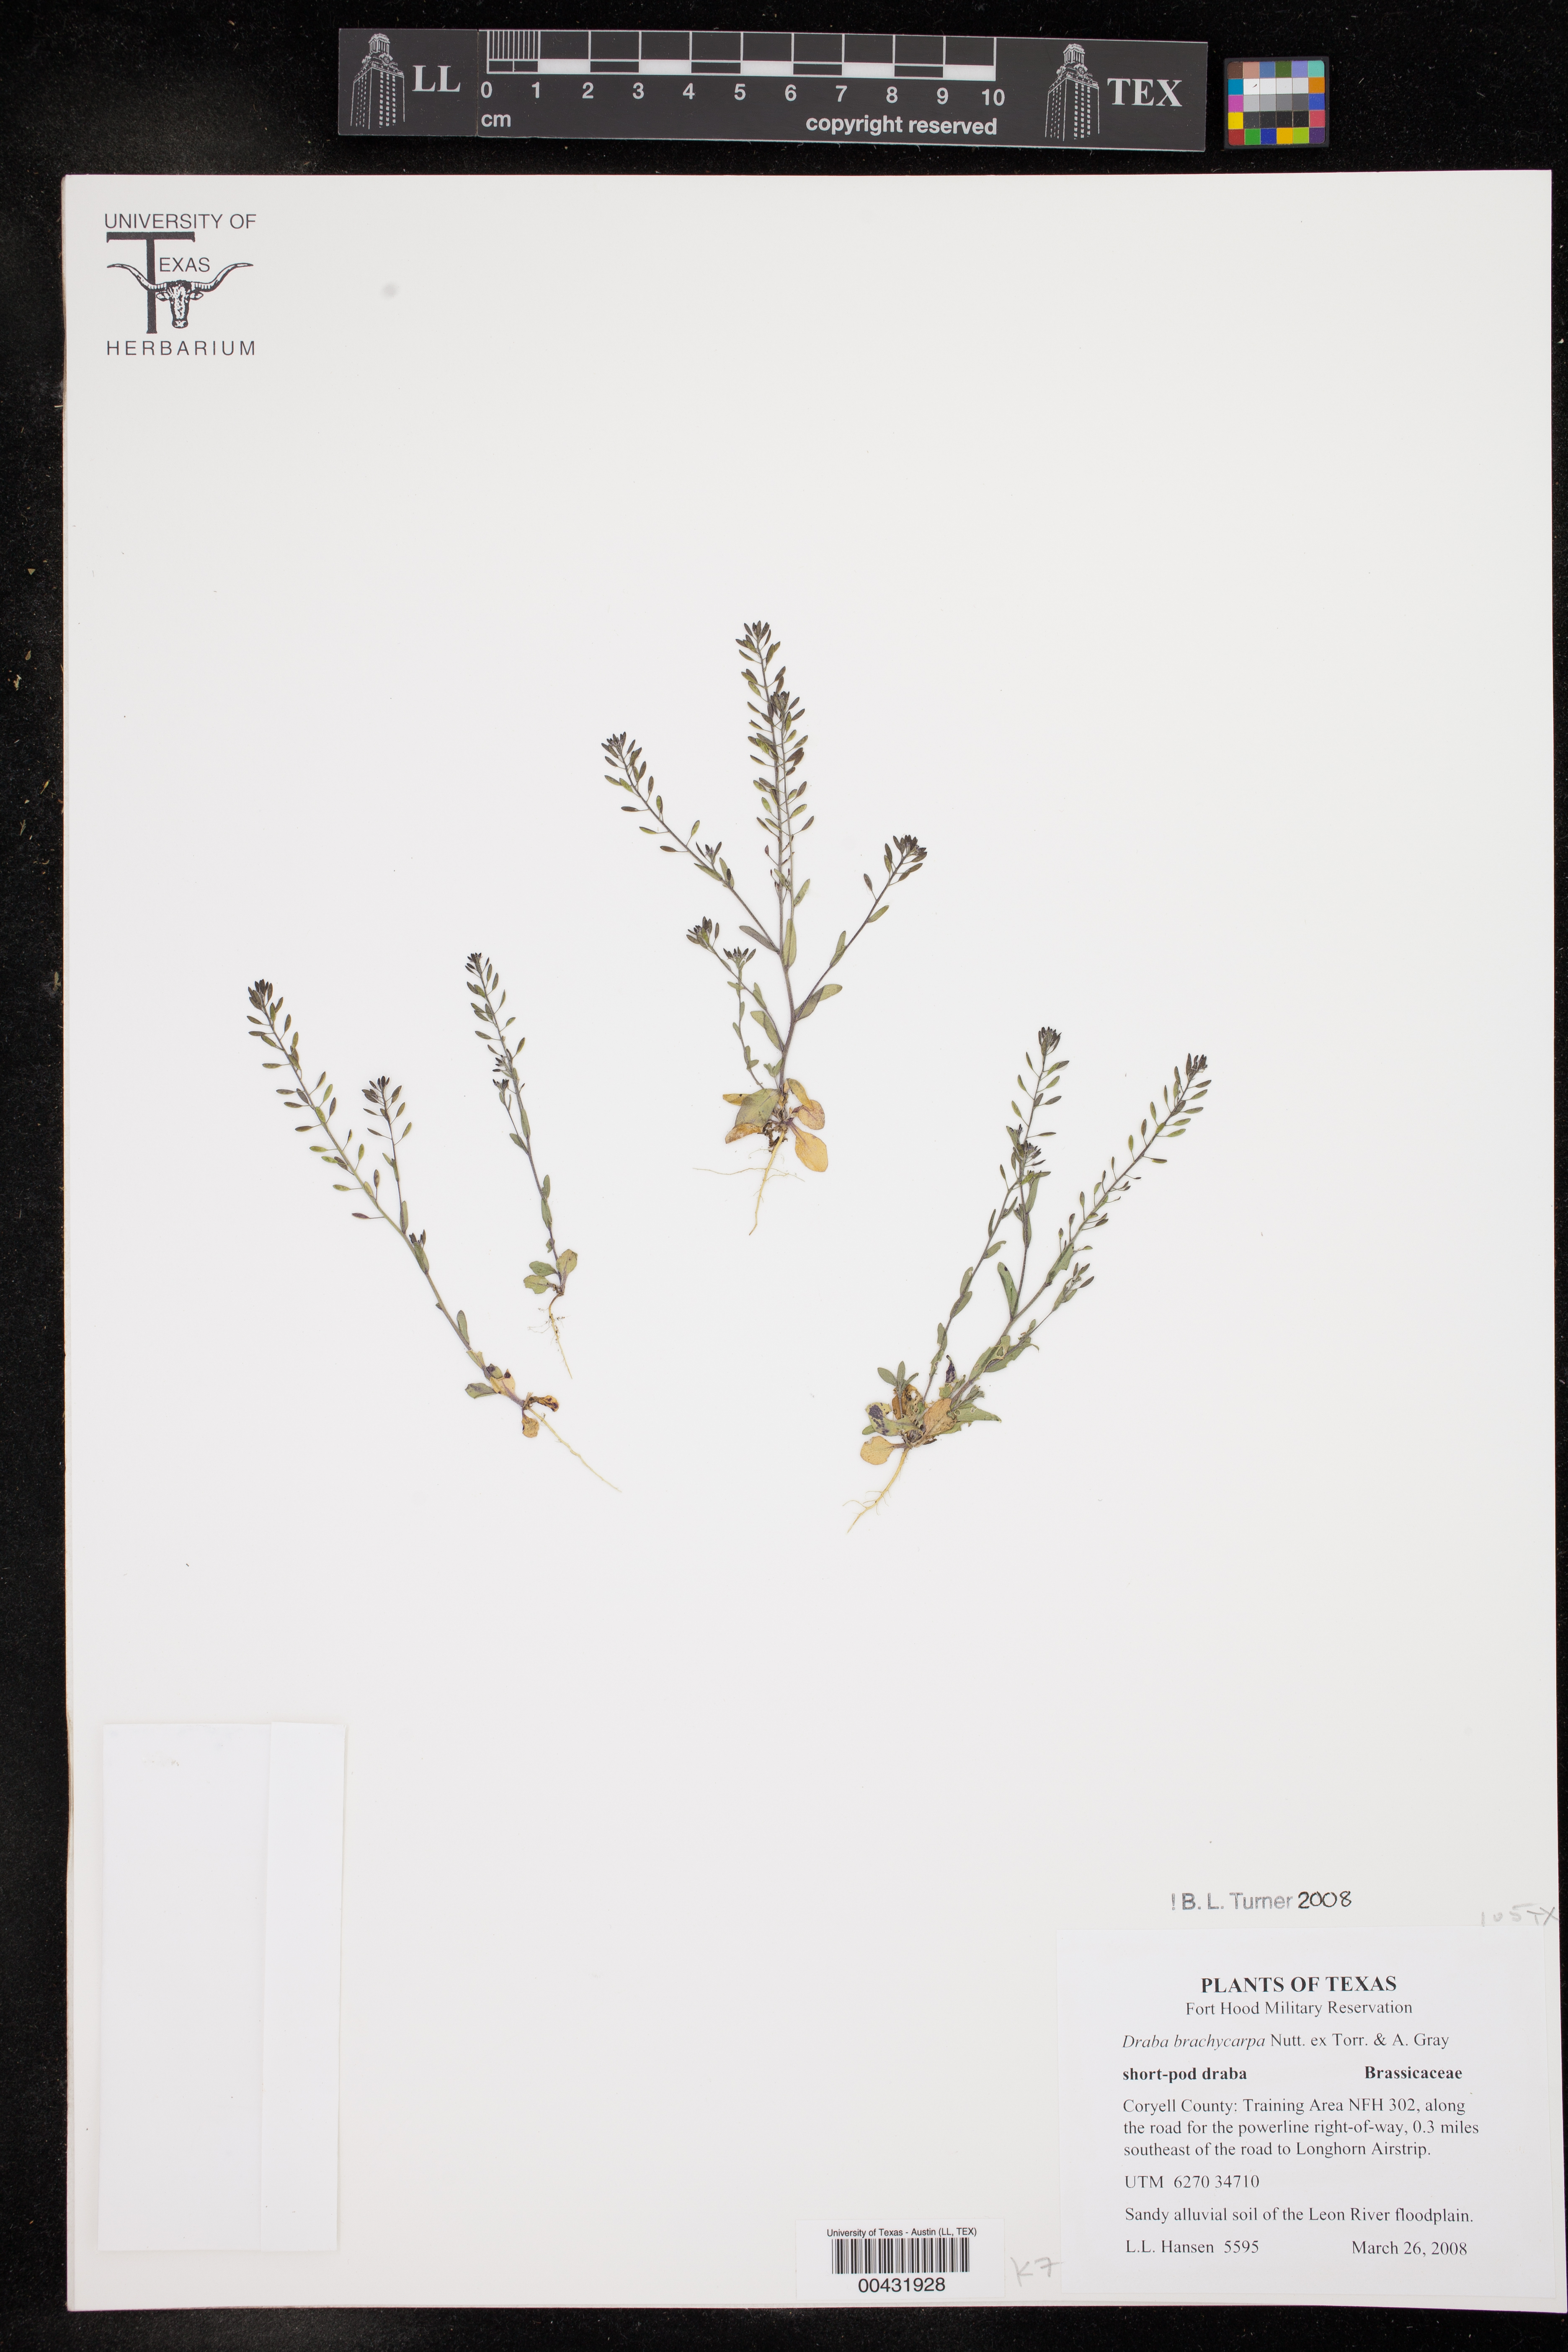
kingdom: Plantae
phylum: Tracheophyta
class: Magnoliopsida
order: Brassicales
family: Brassicaceae
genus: Draba
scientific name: Draba brachycarpa
